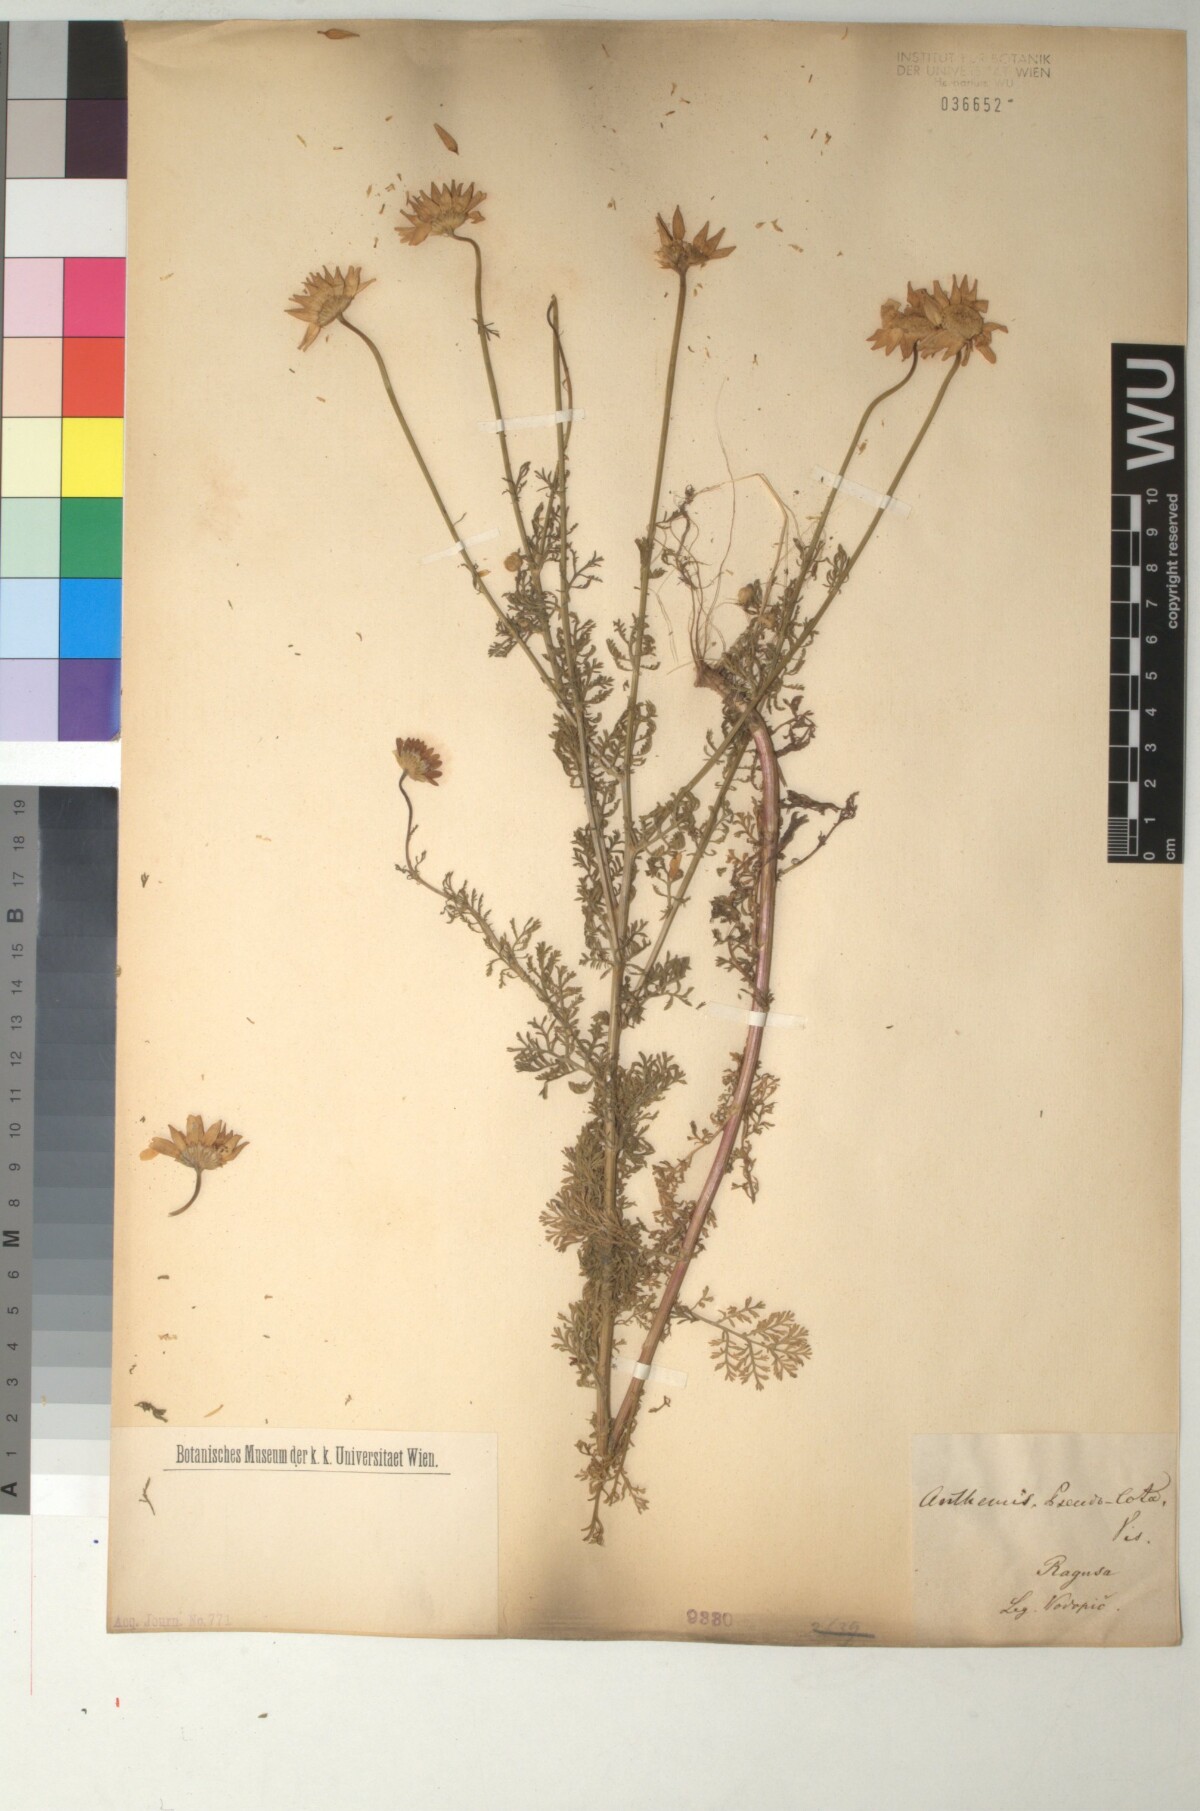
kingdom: Plantae
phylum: Tracheophyta
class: Magnoliopsida
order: Asterales
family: Asteraceae
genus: Cota
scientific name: Cota segetalis
